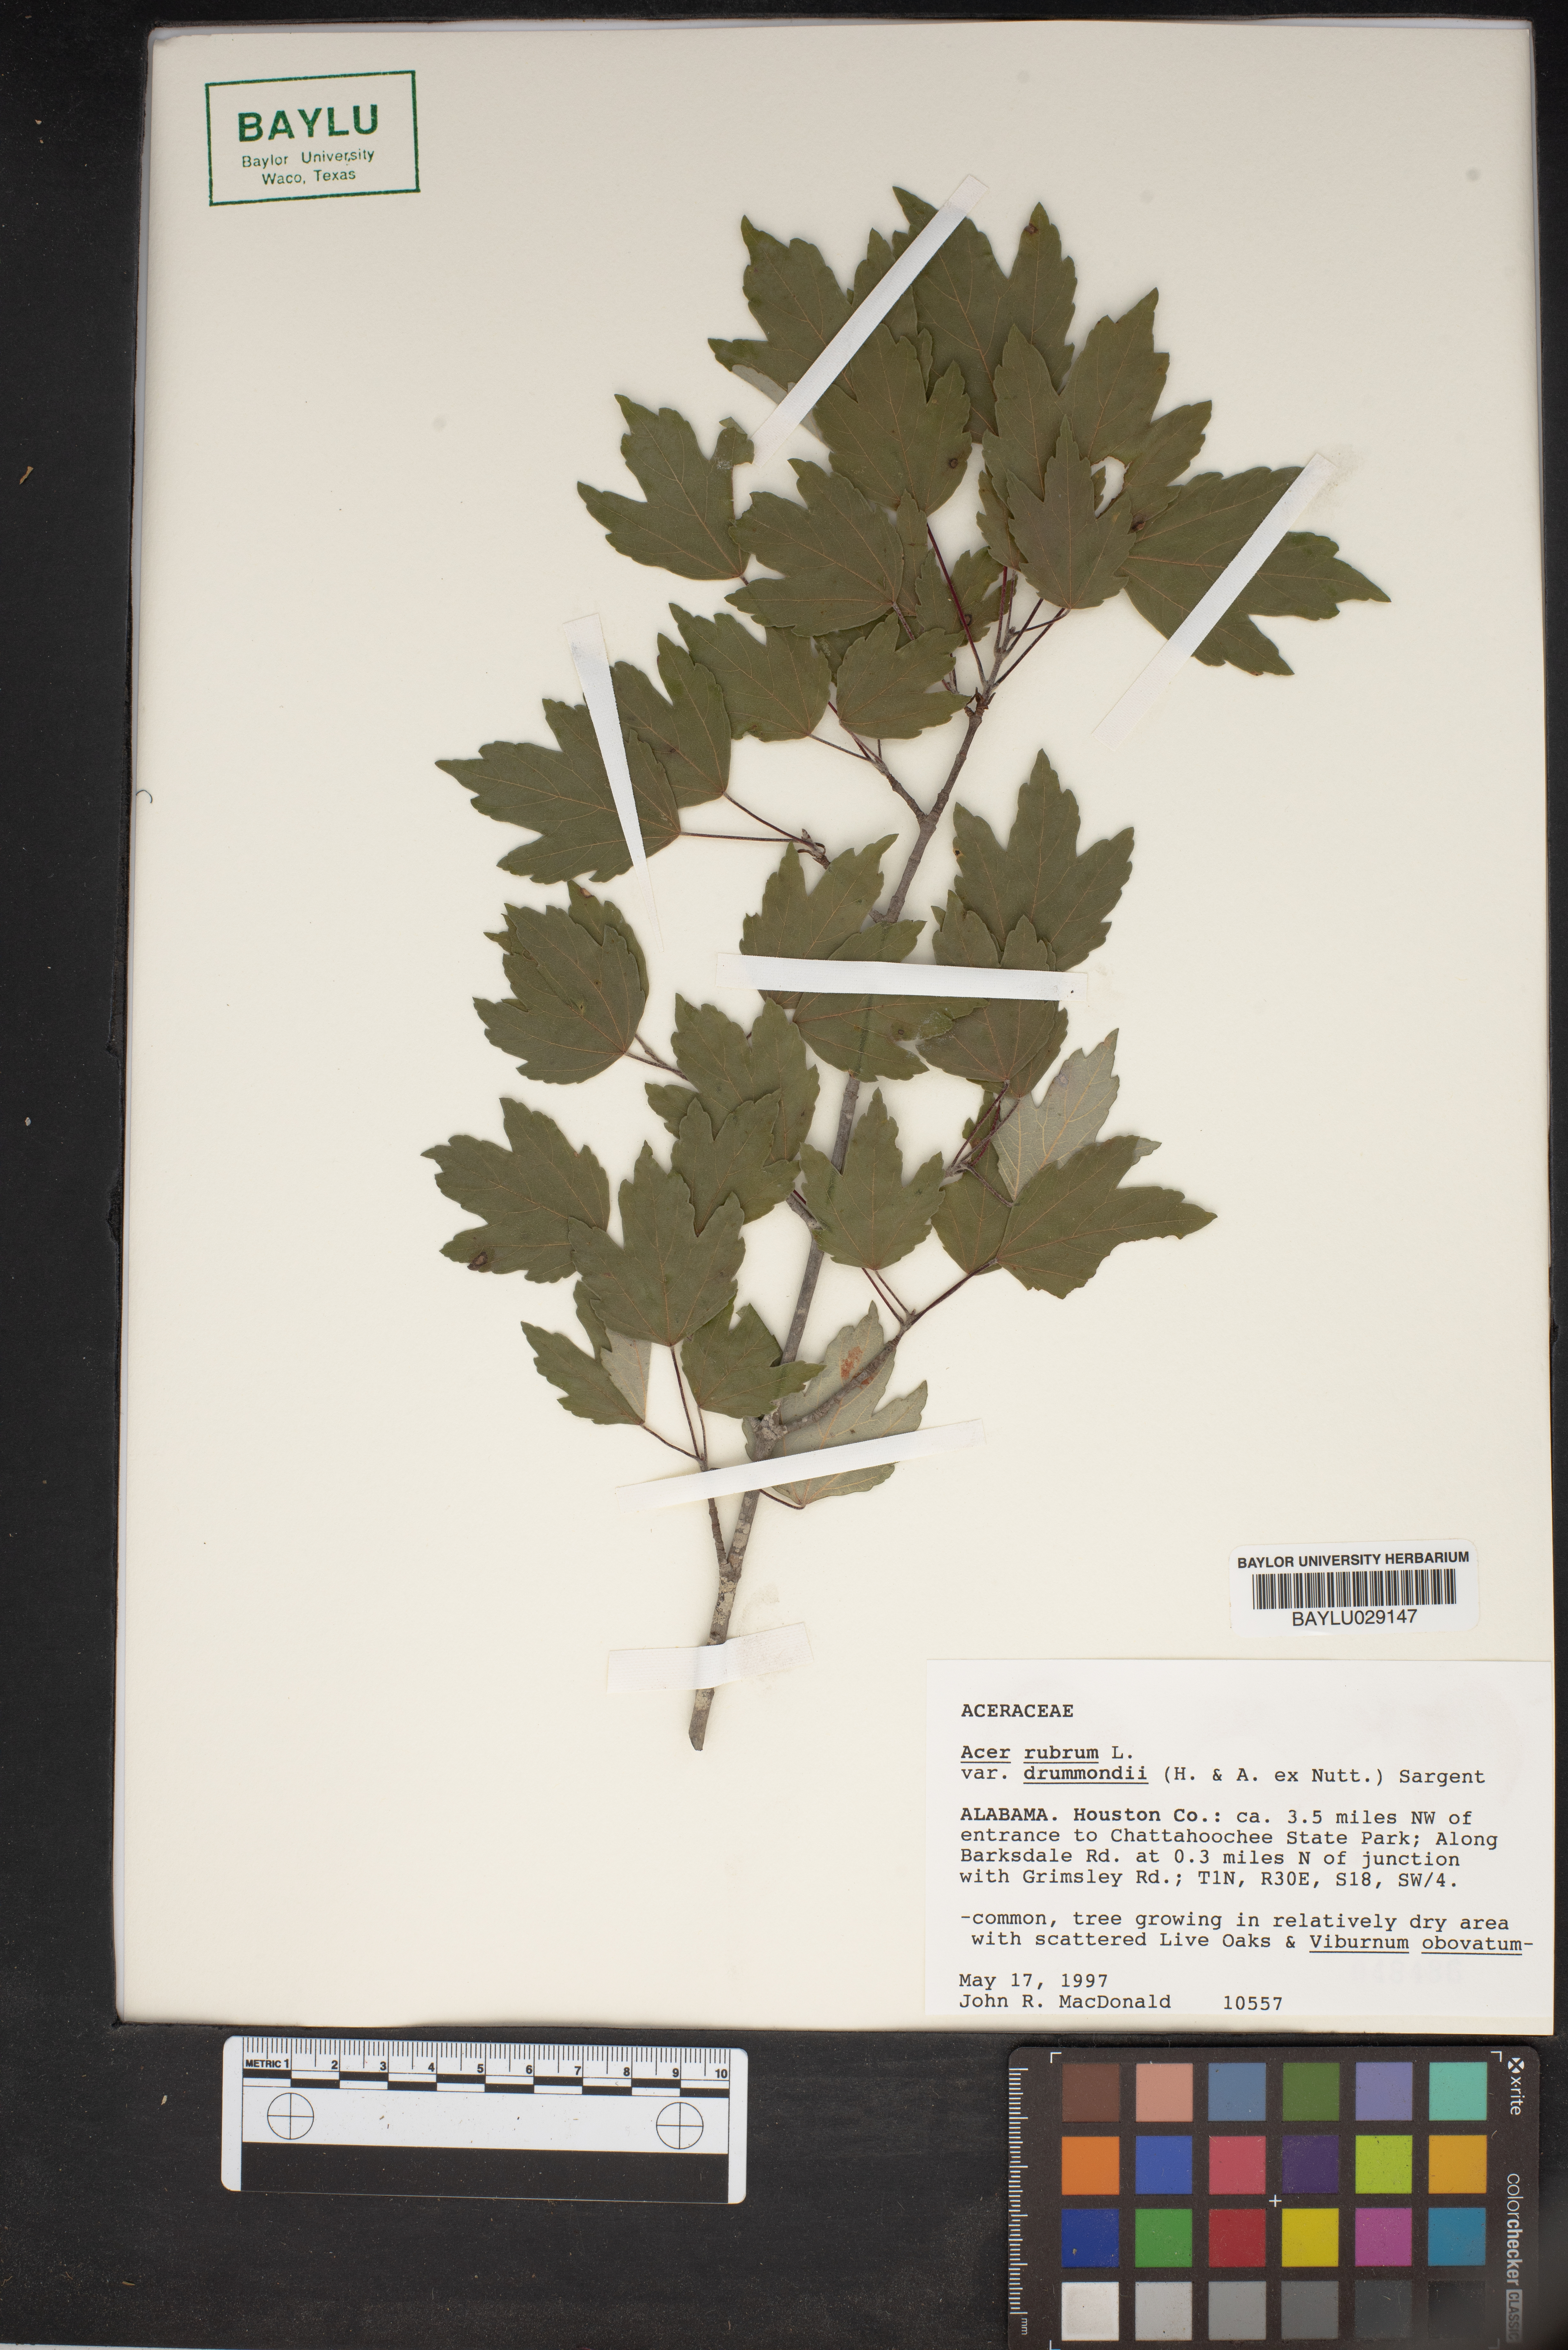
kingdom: Plantae
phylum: Tracheophyta
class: Magnoliopsida
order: Sapindales
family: Sapindaceae
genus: Acer
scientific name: Acer rubrum
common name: Red maple
